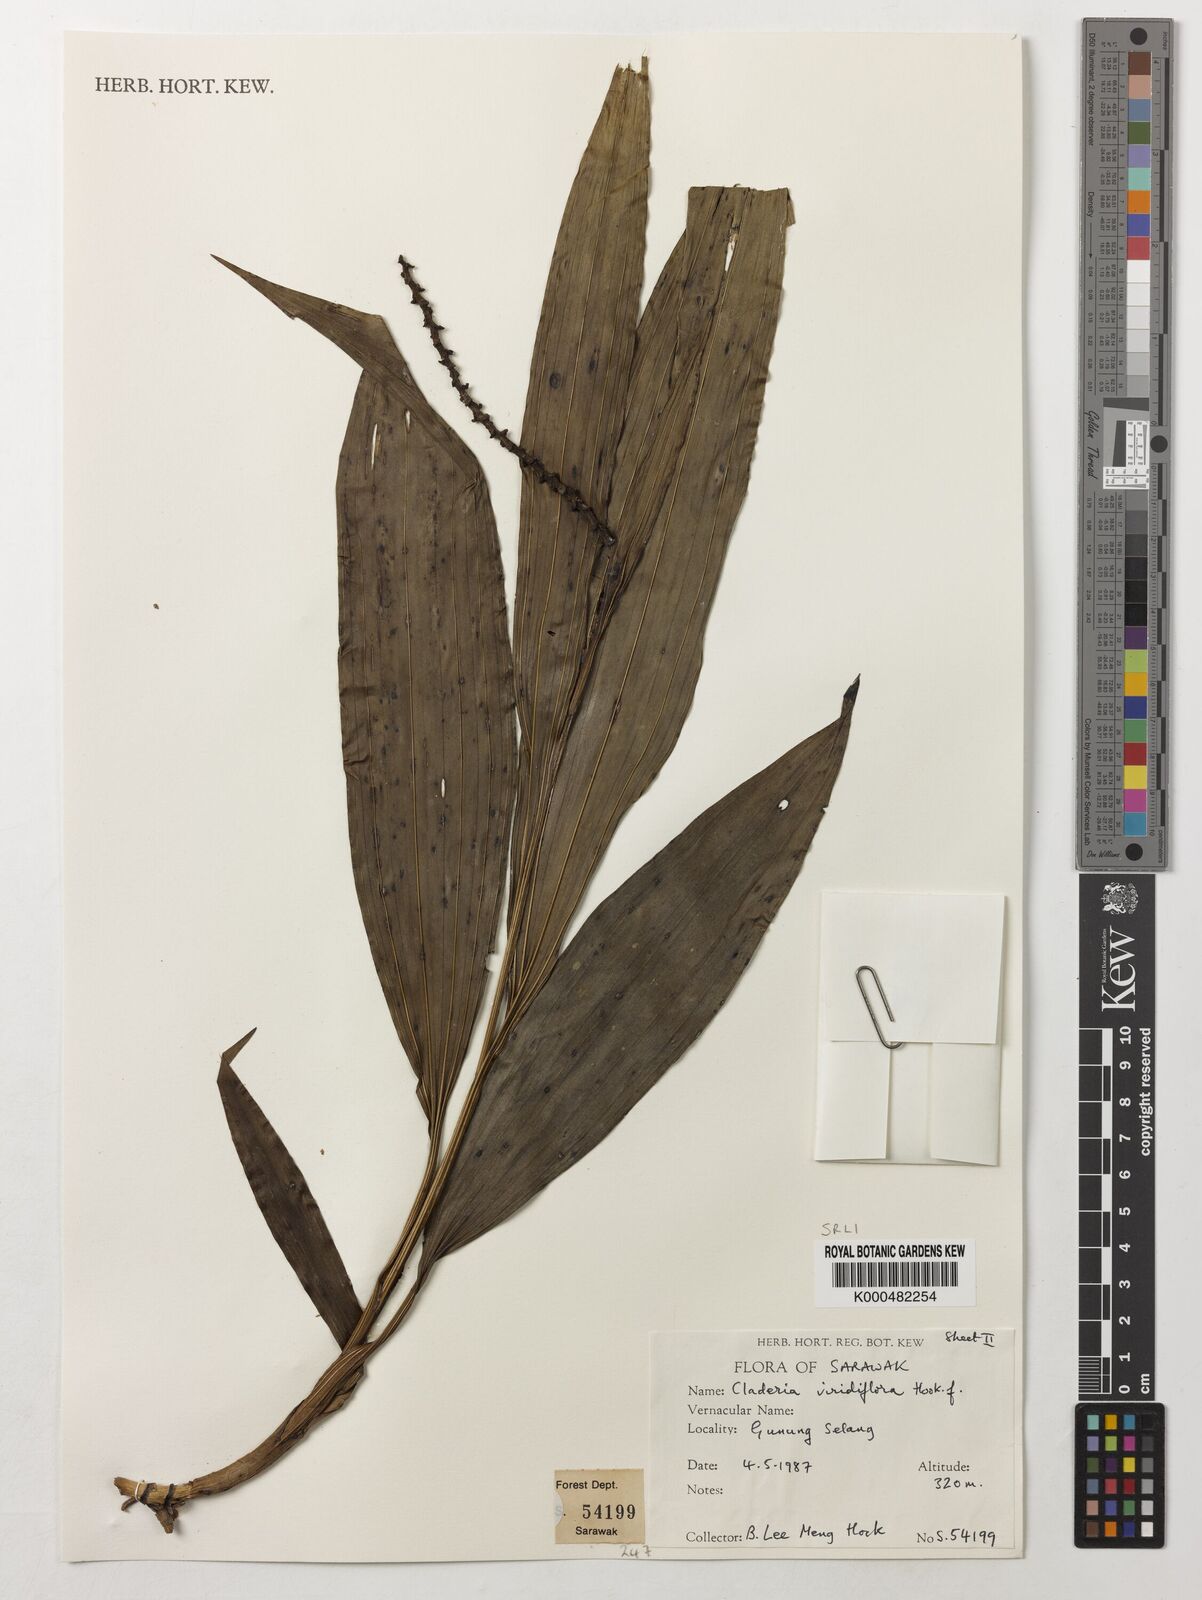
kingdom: Plantae
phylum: Tracheophyta
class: Liliopsida
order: Asparagales
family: Orchidaceae
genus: Claderia
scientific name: Claderia
